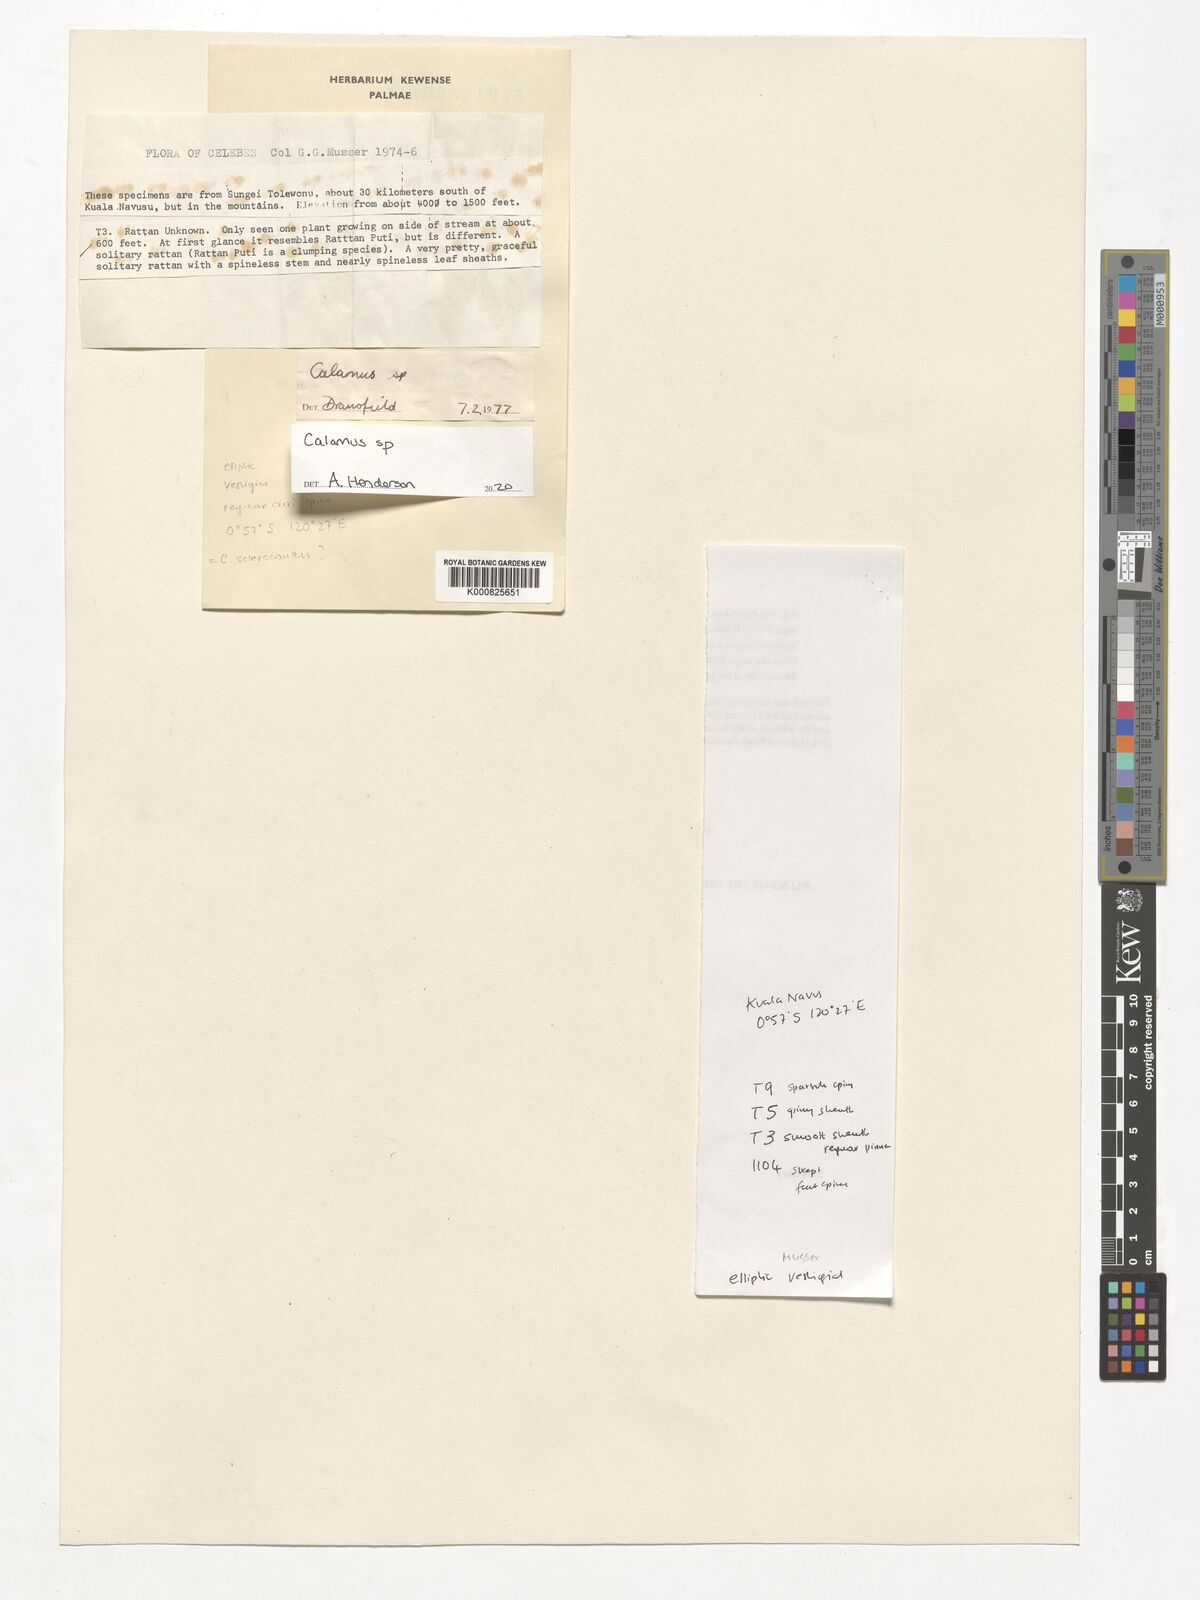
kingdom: Plantae
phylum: Tracheophyta
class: Liliopsida
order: Arecales
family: Arecaceae
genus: Calamus
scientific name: Calamus
